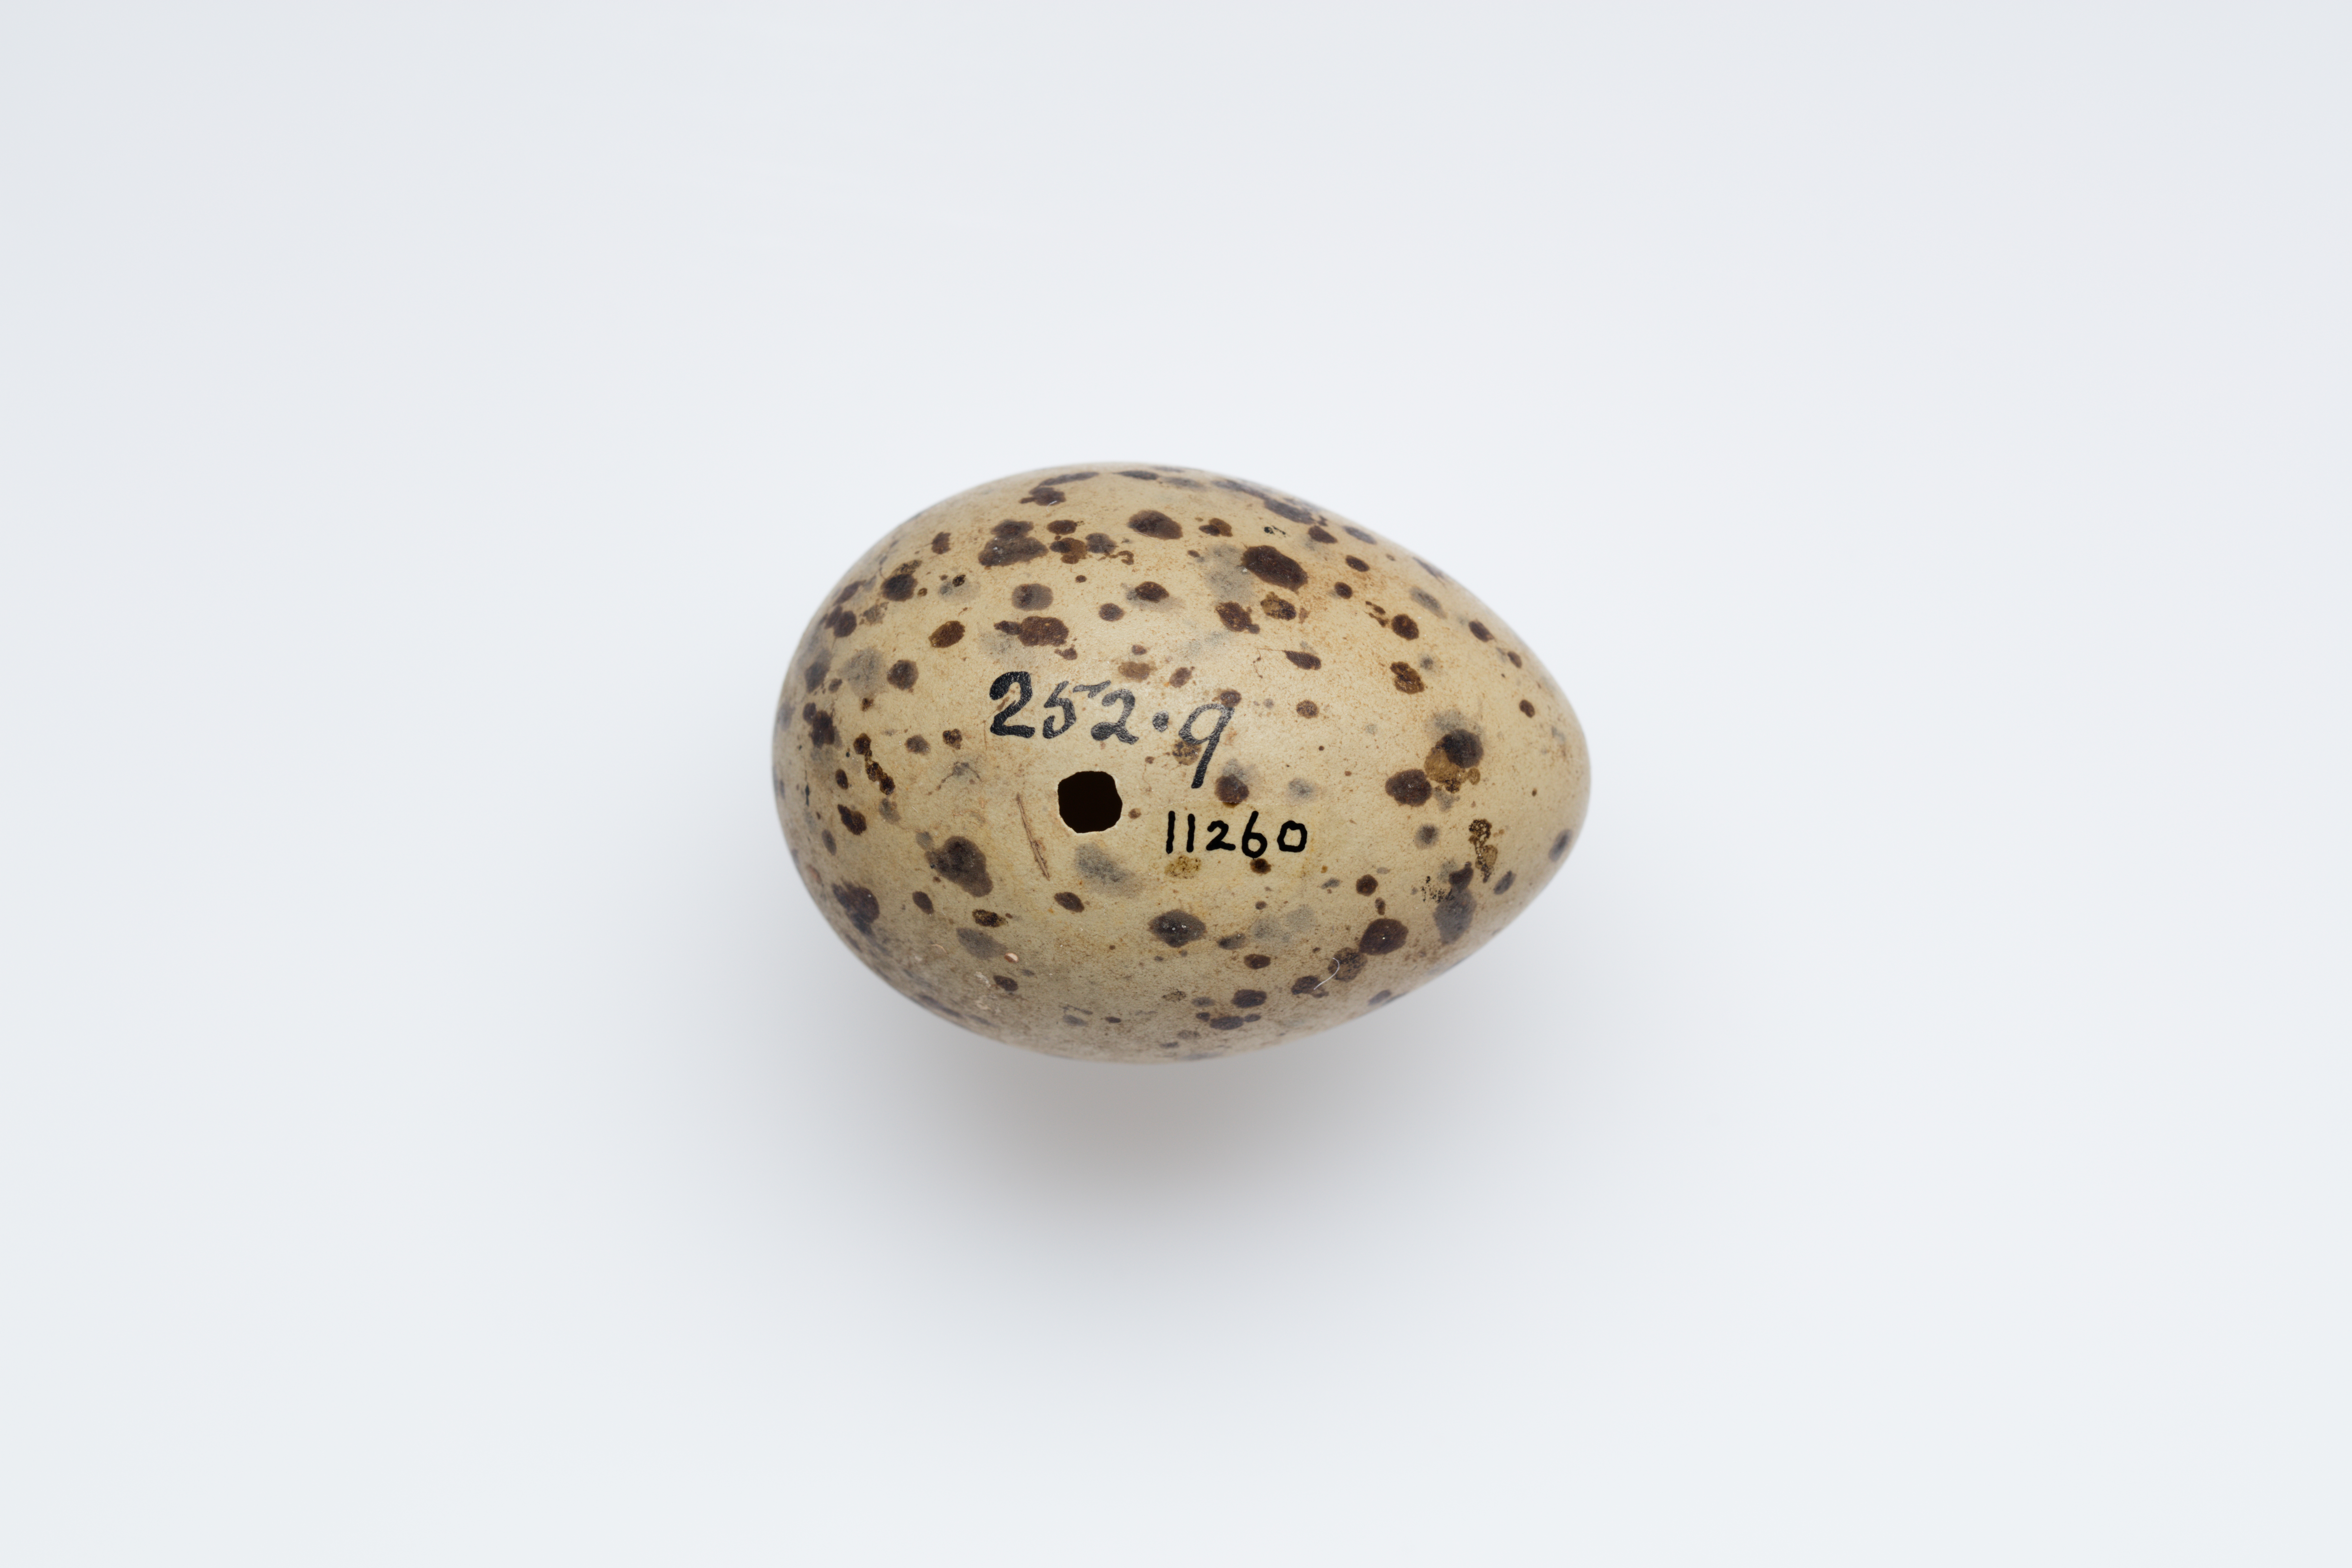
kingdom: Animalia
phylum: Chordata
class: Aves
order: Charadriiformes
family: Laridae
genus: Chroicocephalus
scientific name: Chroicocephalus ridibundus
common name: Black-headed gull
